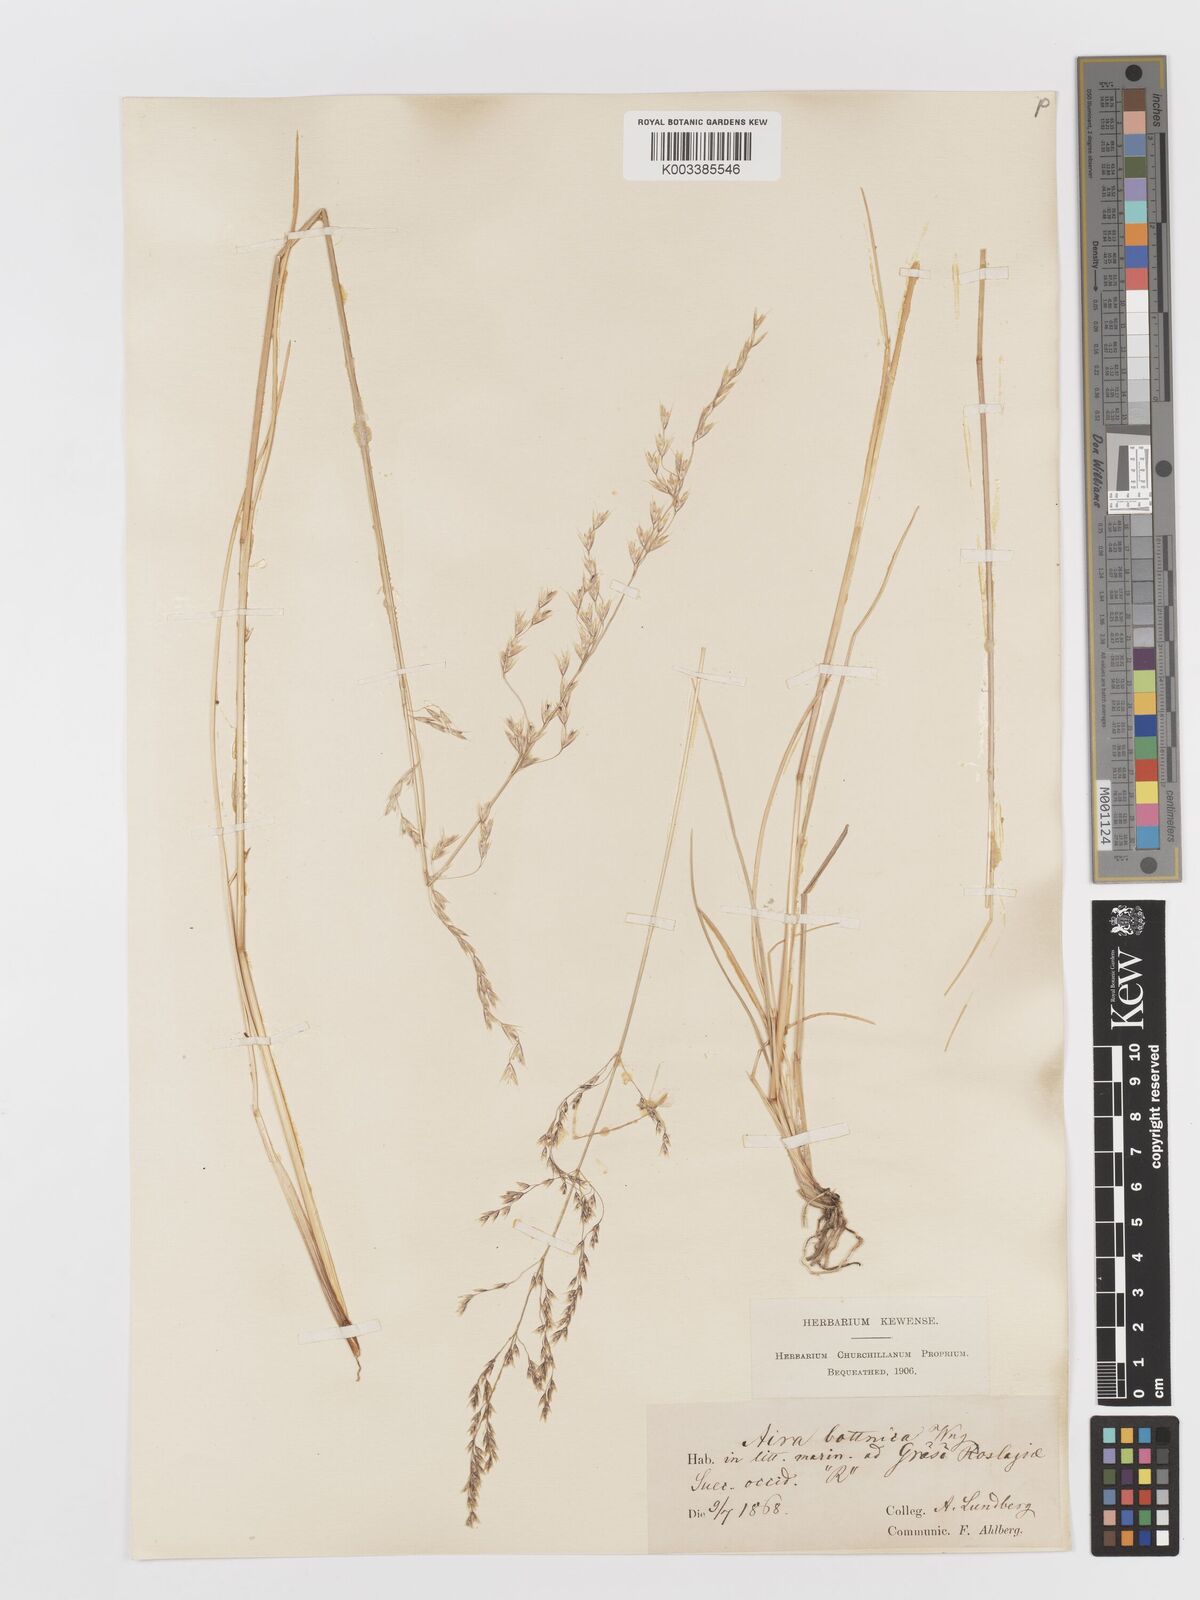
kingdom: Plantae
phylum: Tracheophyta
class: Liliopsida
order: Poales
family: Poaceae
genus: Deschampsia
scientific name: Deschampsia cespitosa
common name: Tufted hair-grass
